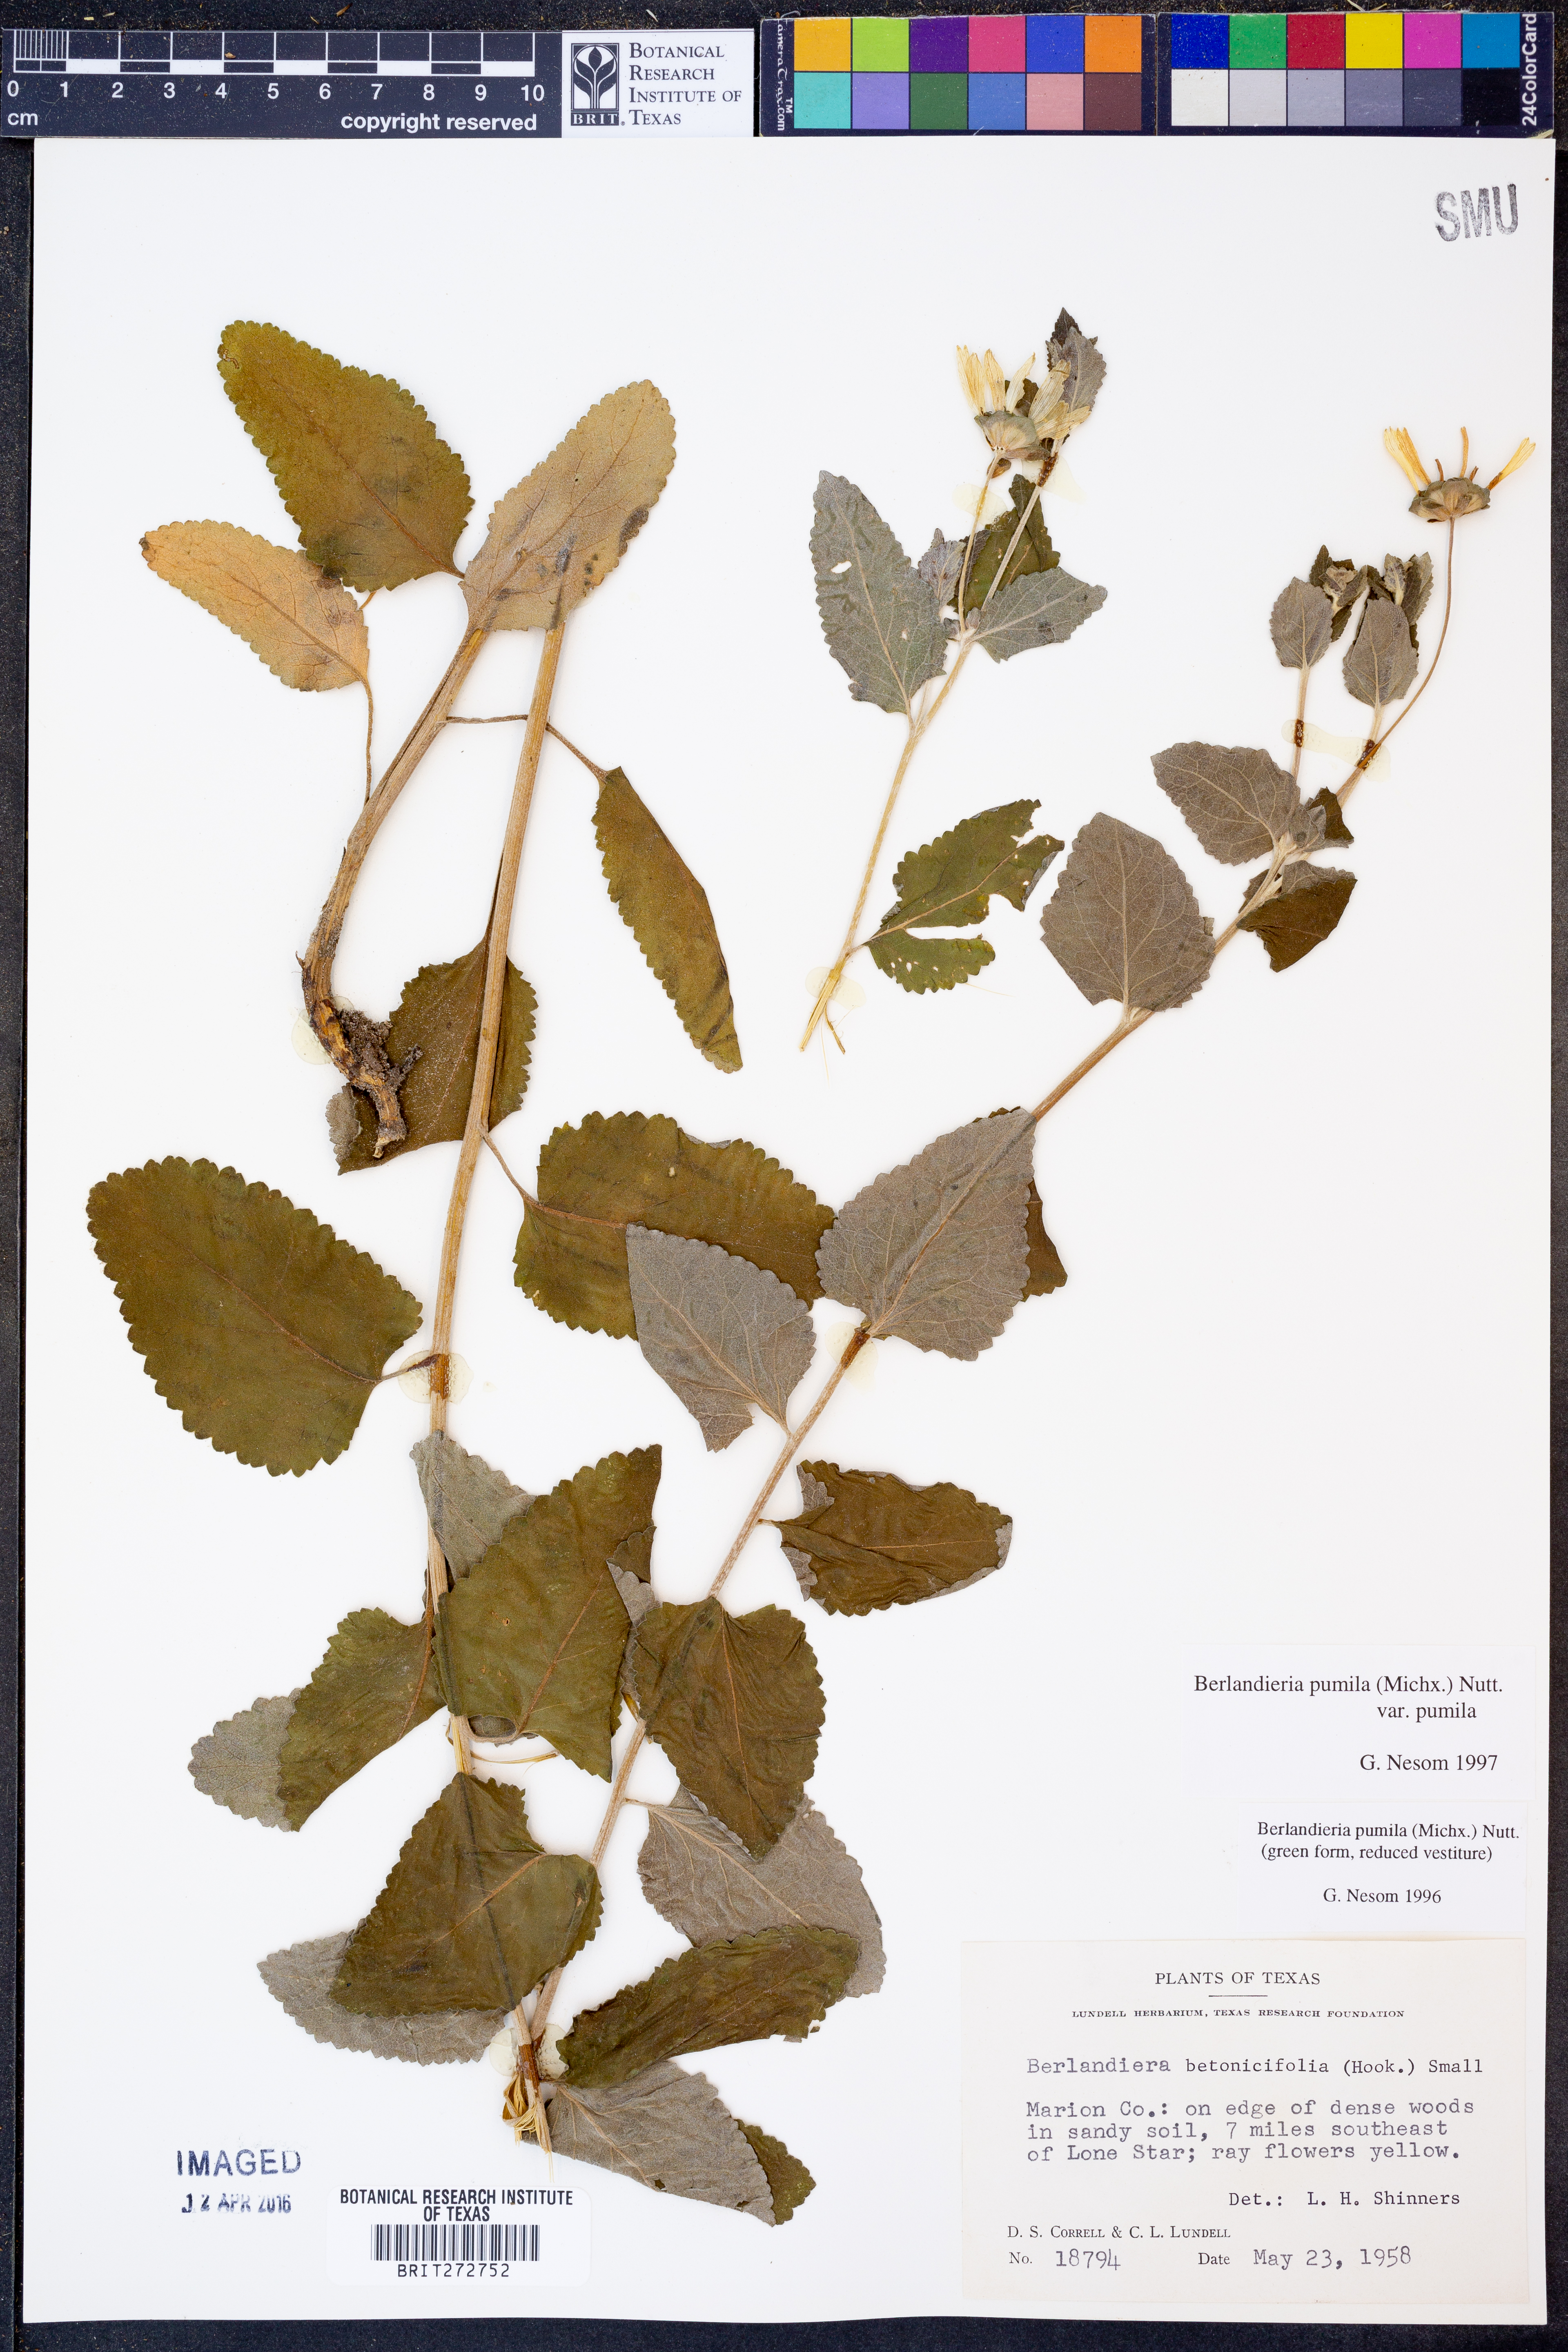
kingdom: Plantae
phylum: Tracheophyta
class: Magnoliopsida
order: Asterales
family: Asteraceae
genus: Berlandiera
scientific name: Berlandiera pumila
